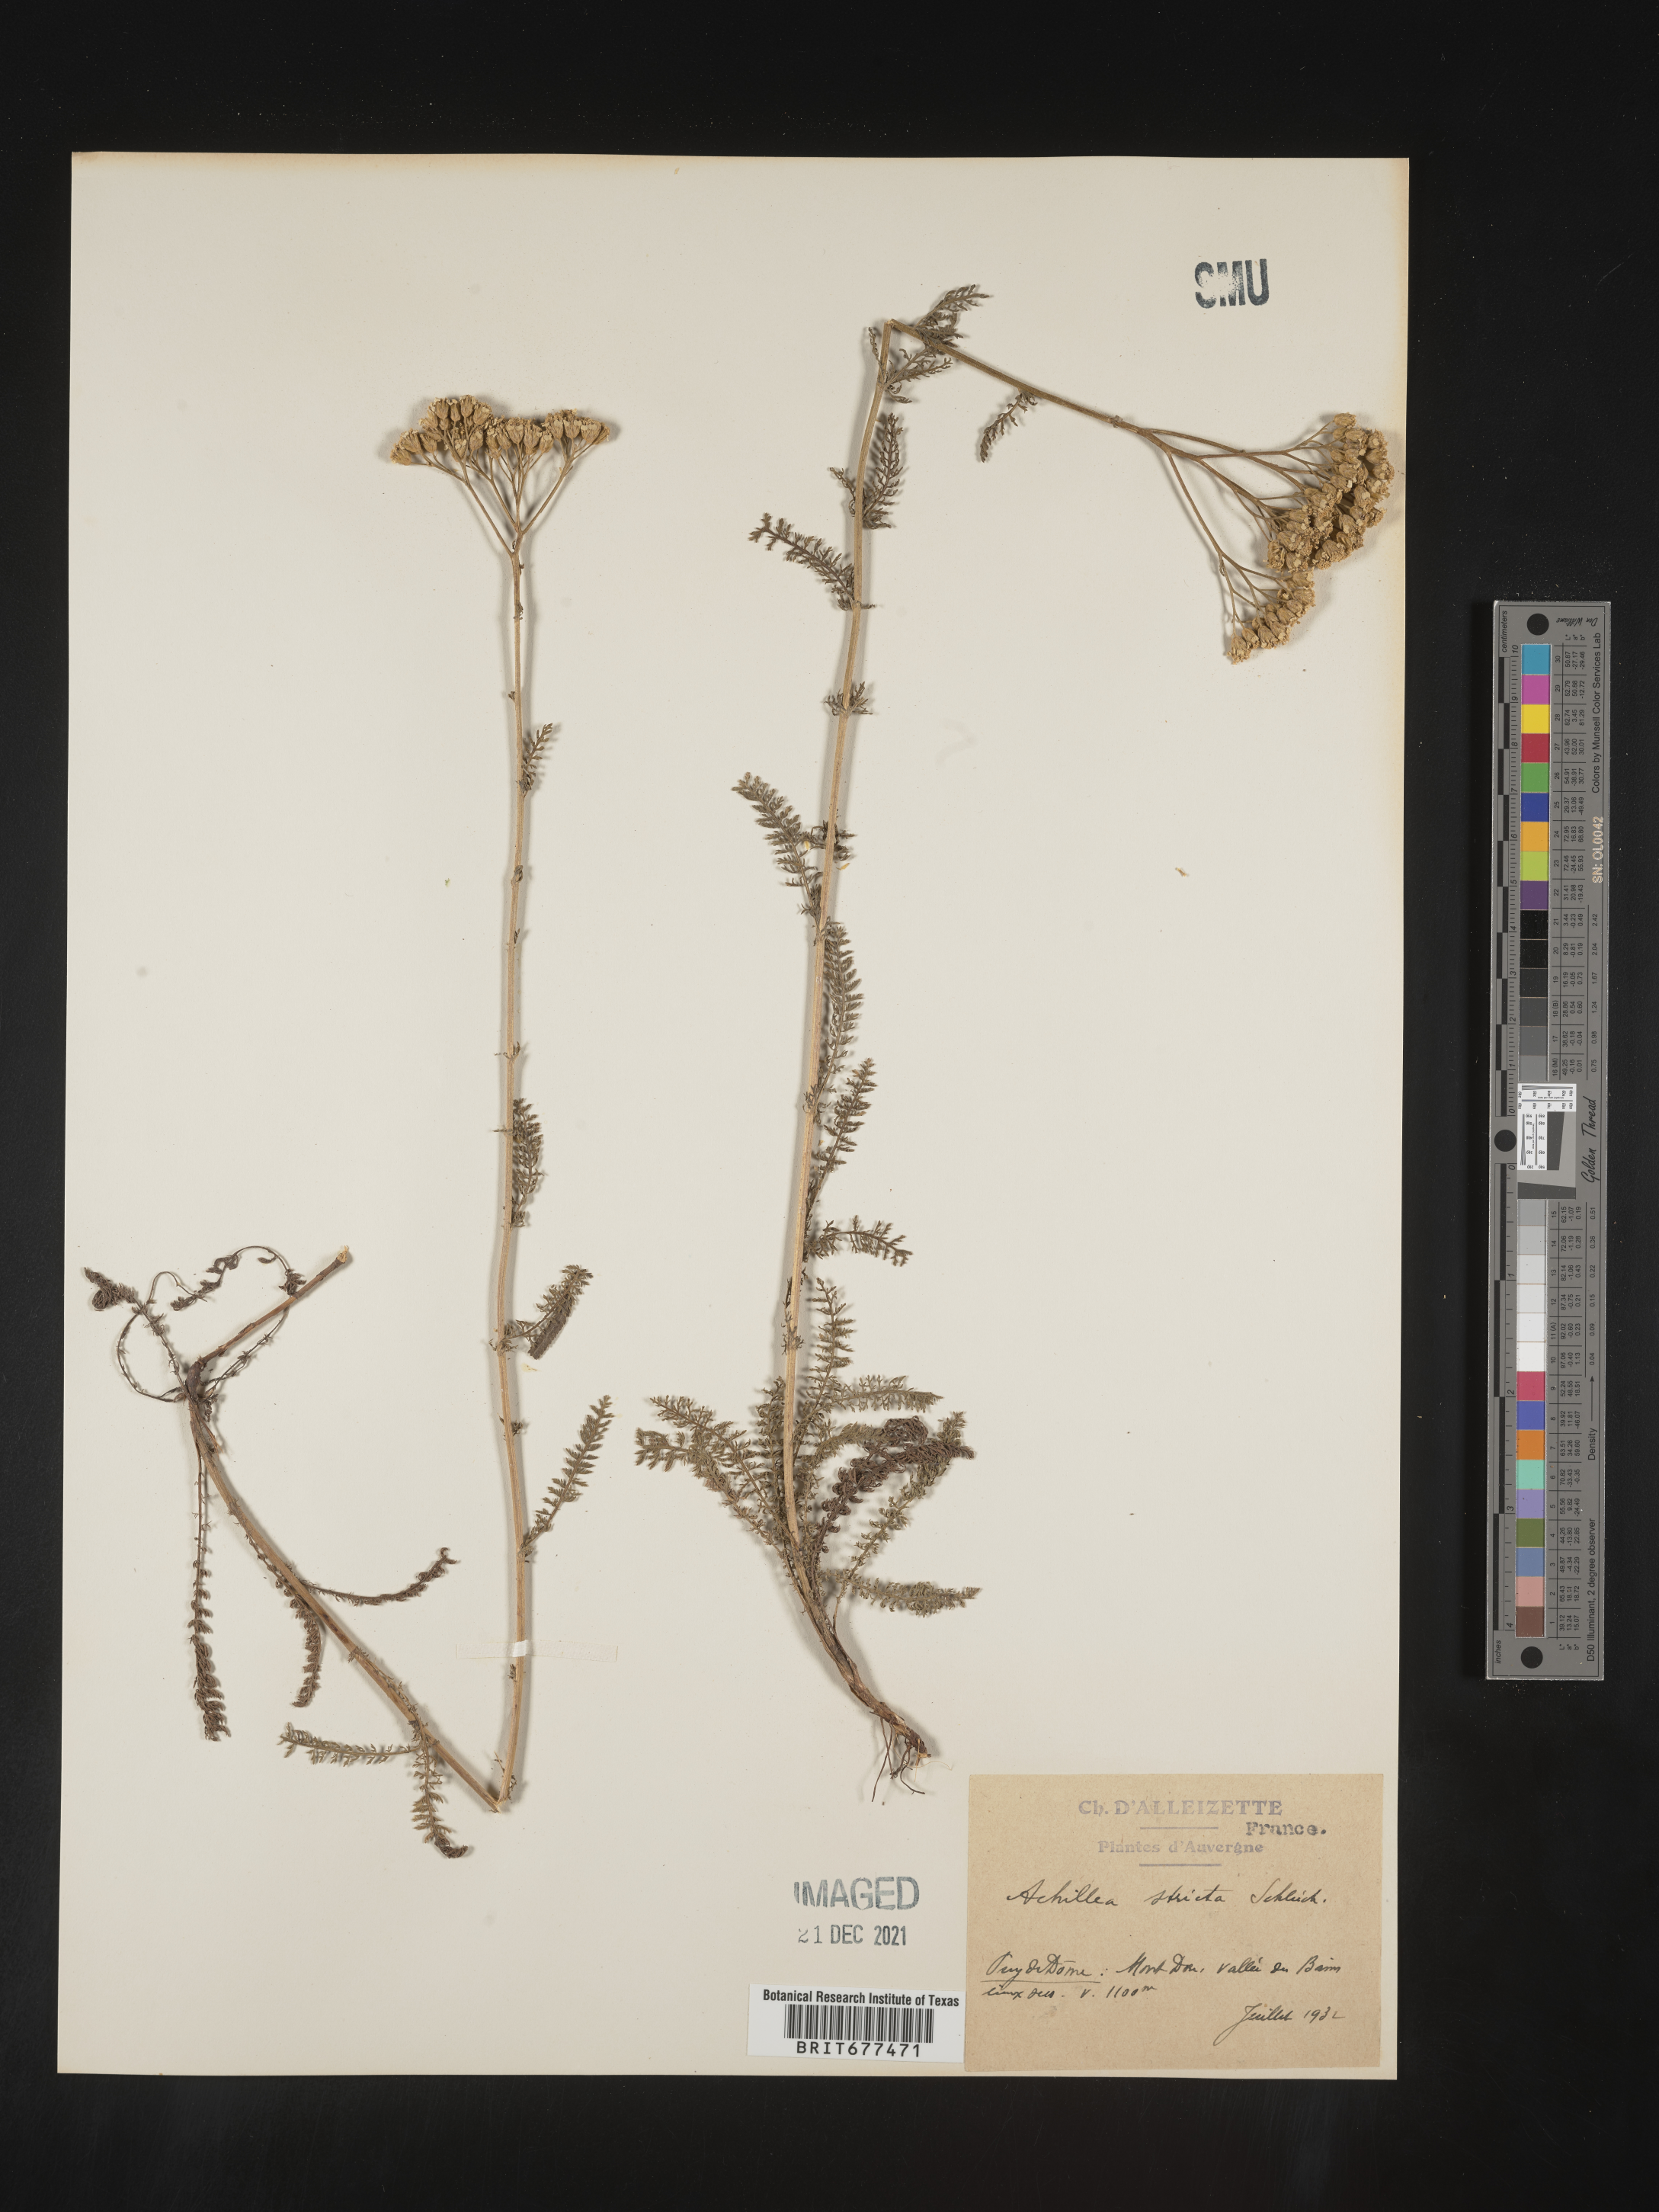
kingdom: Plantae
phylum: Tracheophyta
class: Magnoliopsida
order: Asterales
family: Asteraceae
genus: Achillea
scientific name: Achillea
